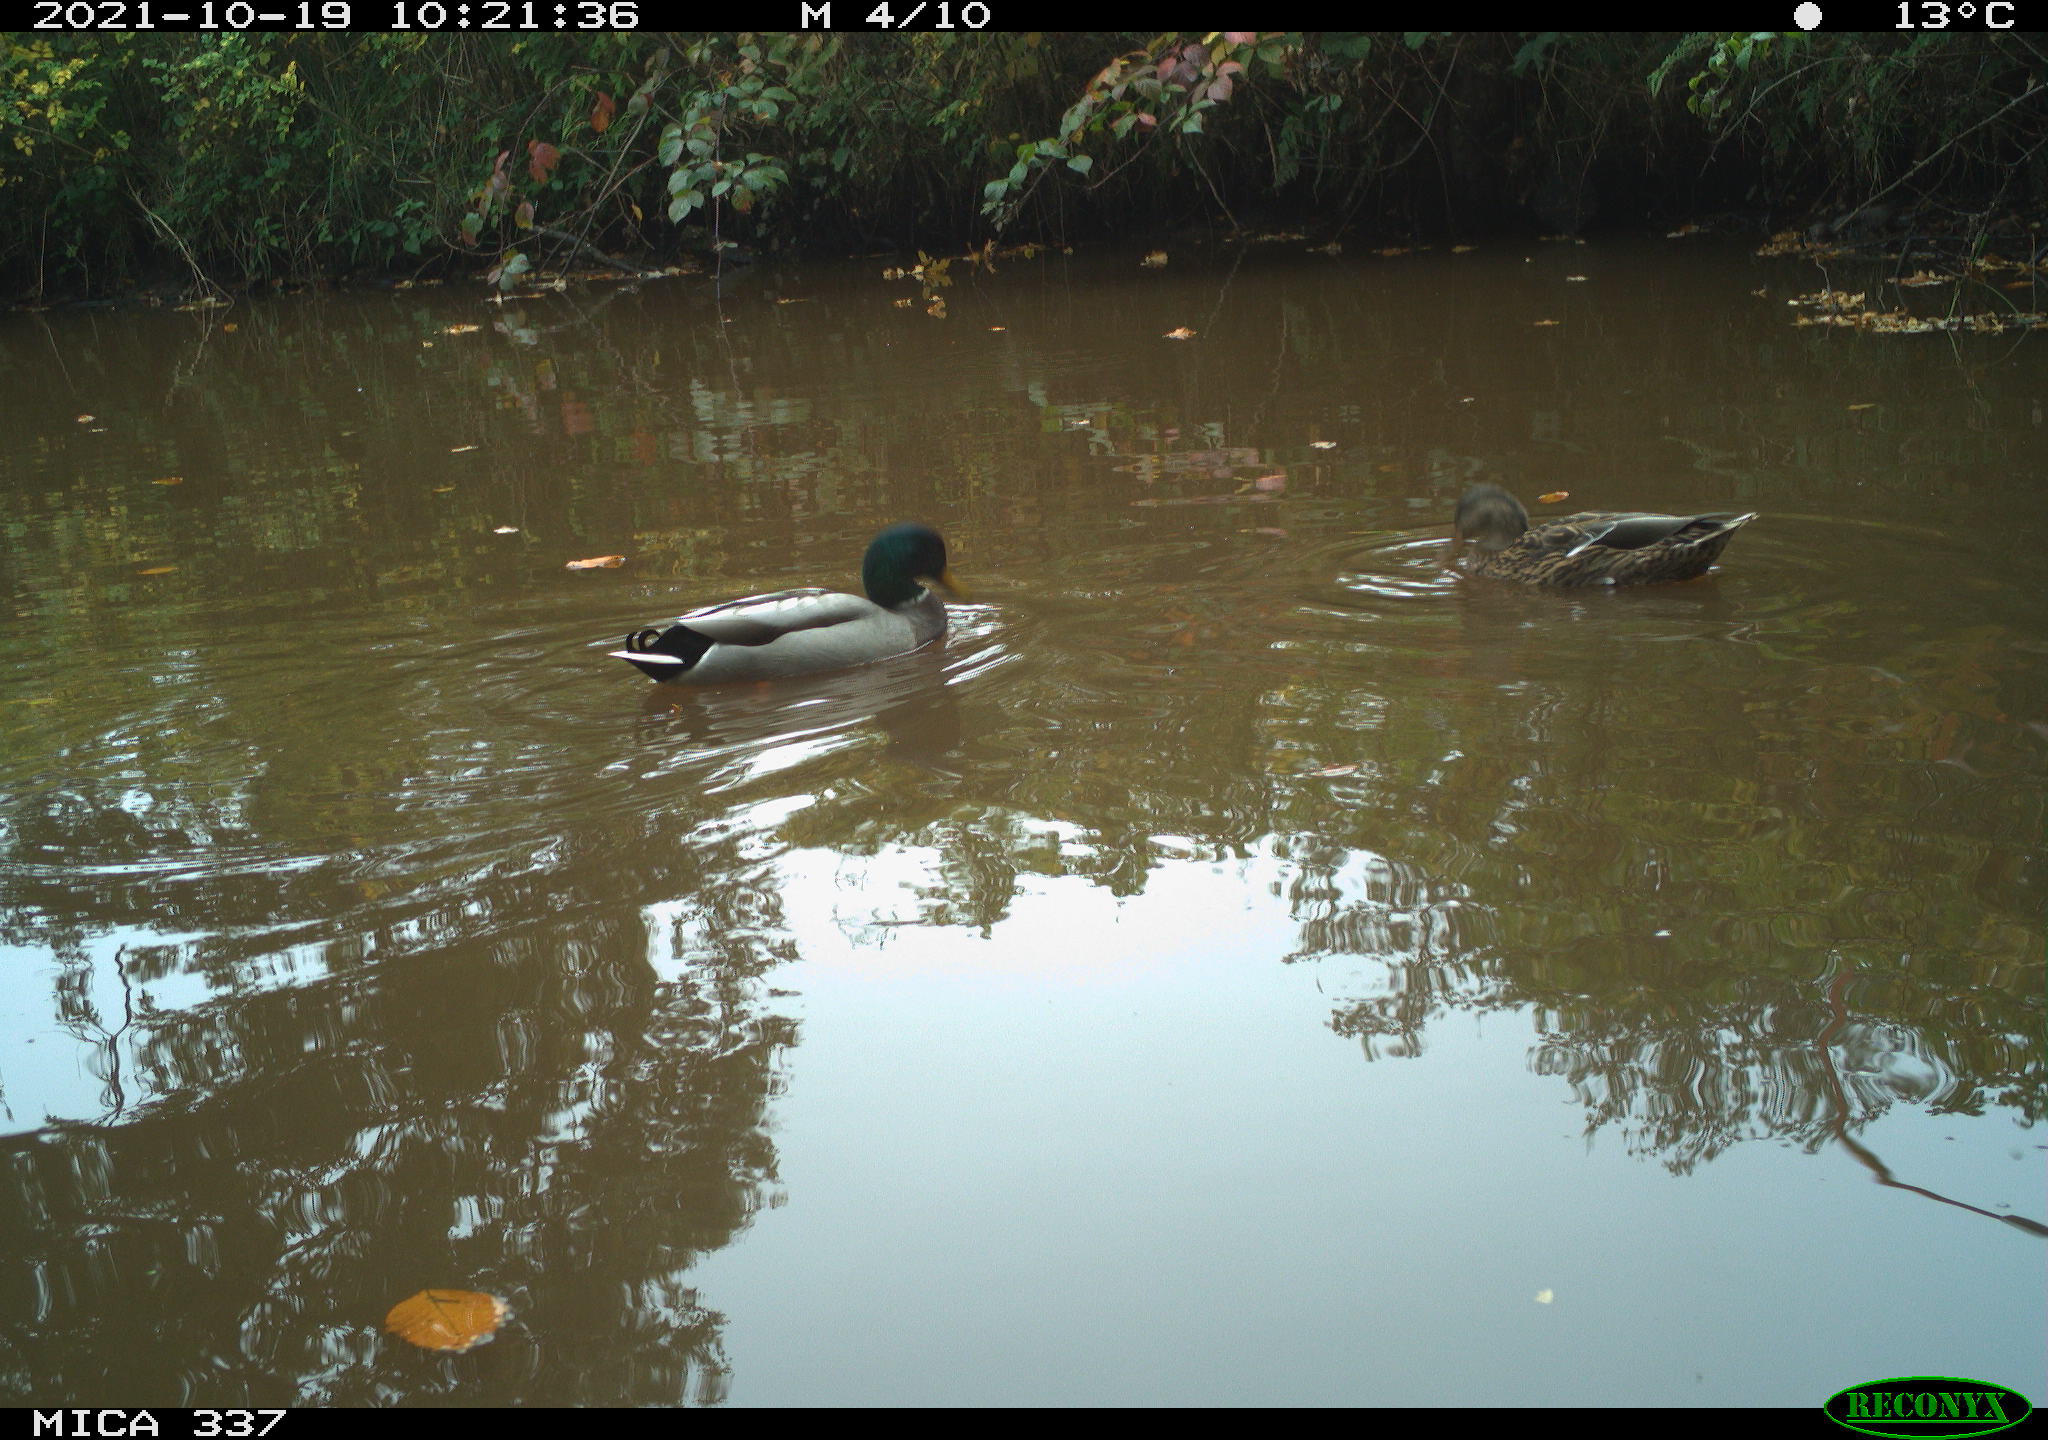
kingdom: Animalia
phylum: Chordata
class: Aves
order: Anseriformes
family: Anatidae
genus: Anas
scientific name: Anas platyrhynchos
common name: Mallard
